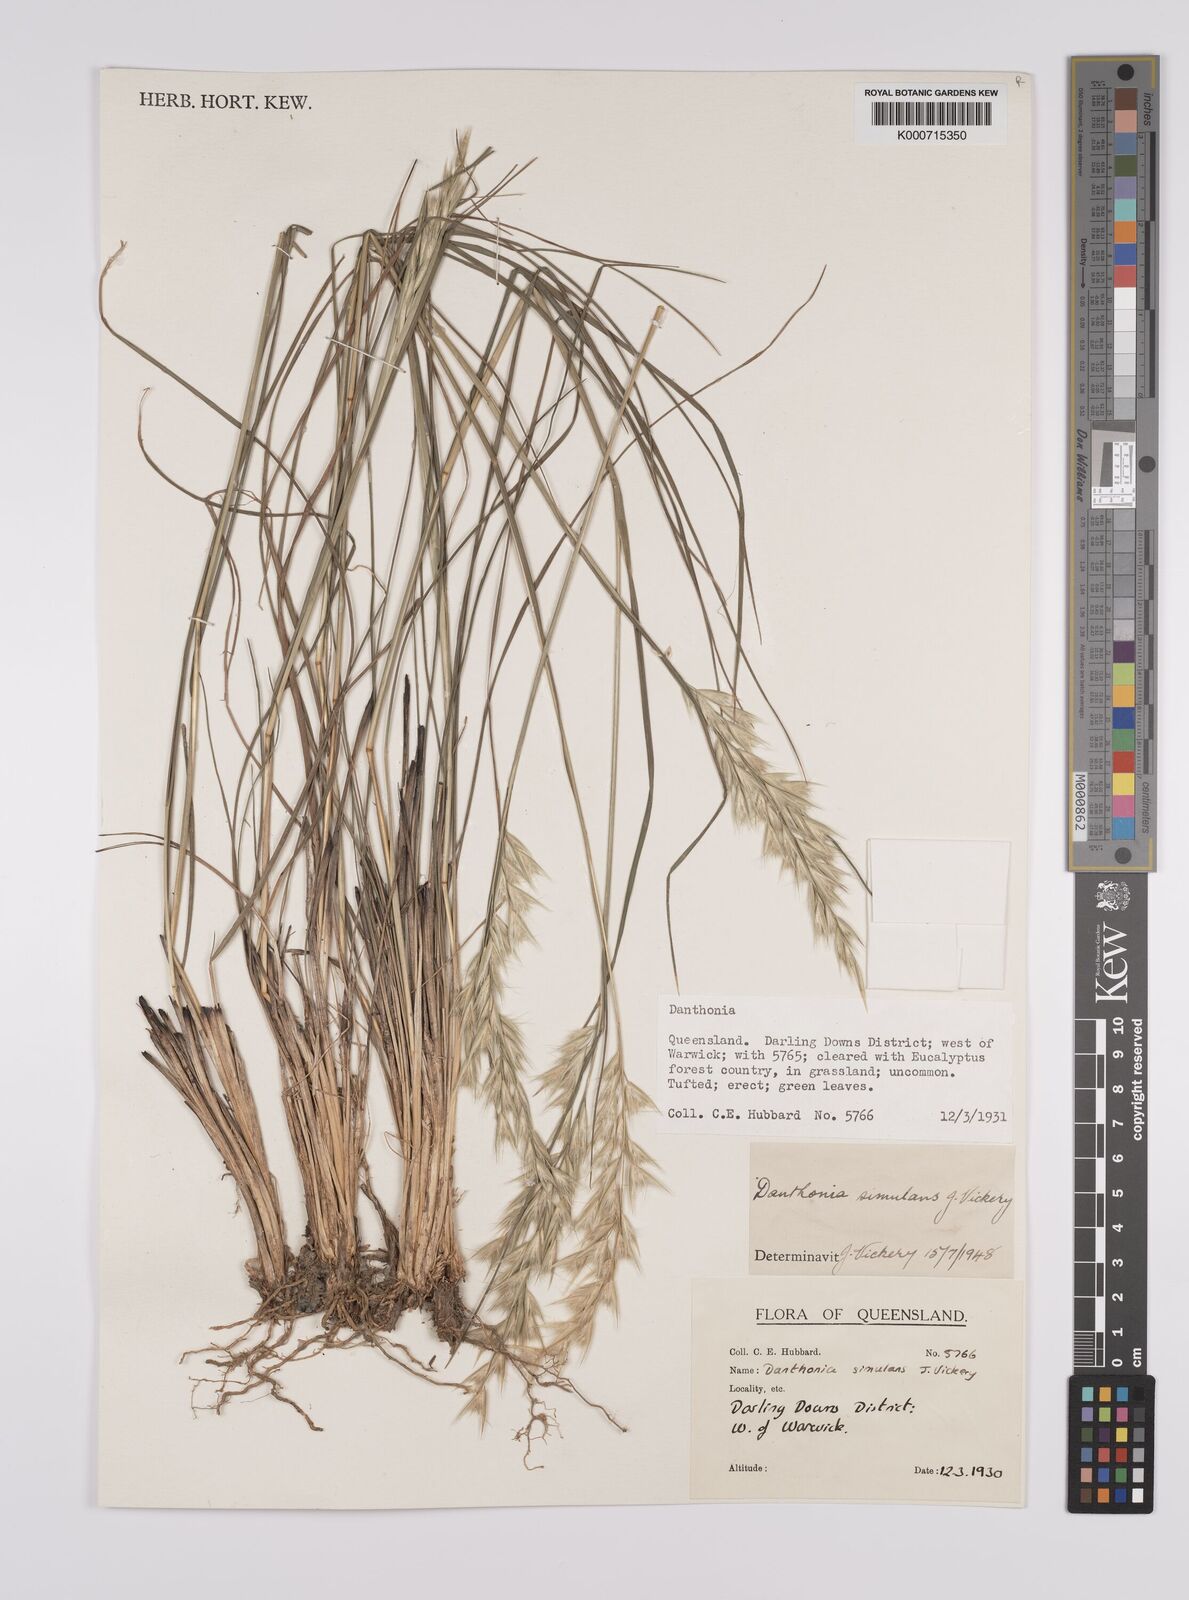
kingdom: Plantae
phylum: Tracheophyta
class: Liliopsida
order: Poales
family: Poaceae
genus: Rytidosperma
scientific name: Rytidosperma bipartitum
